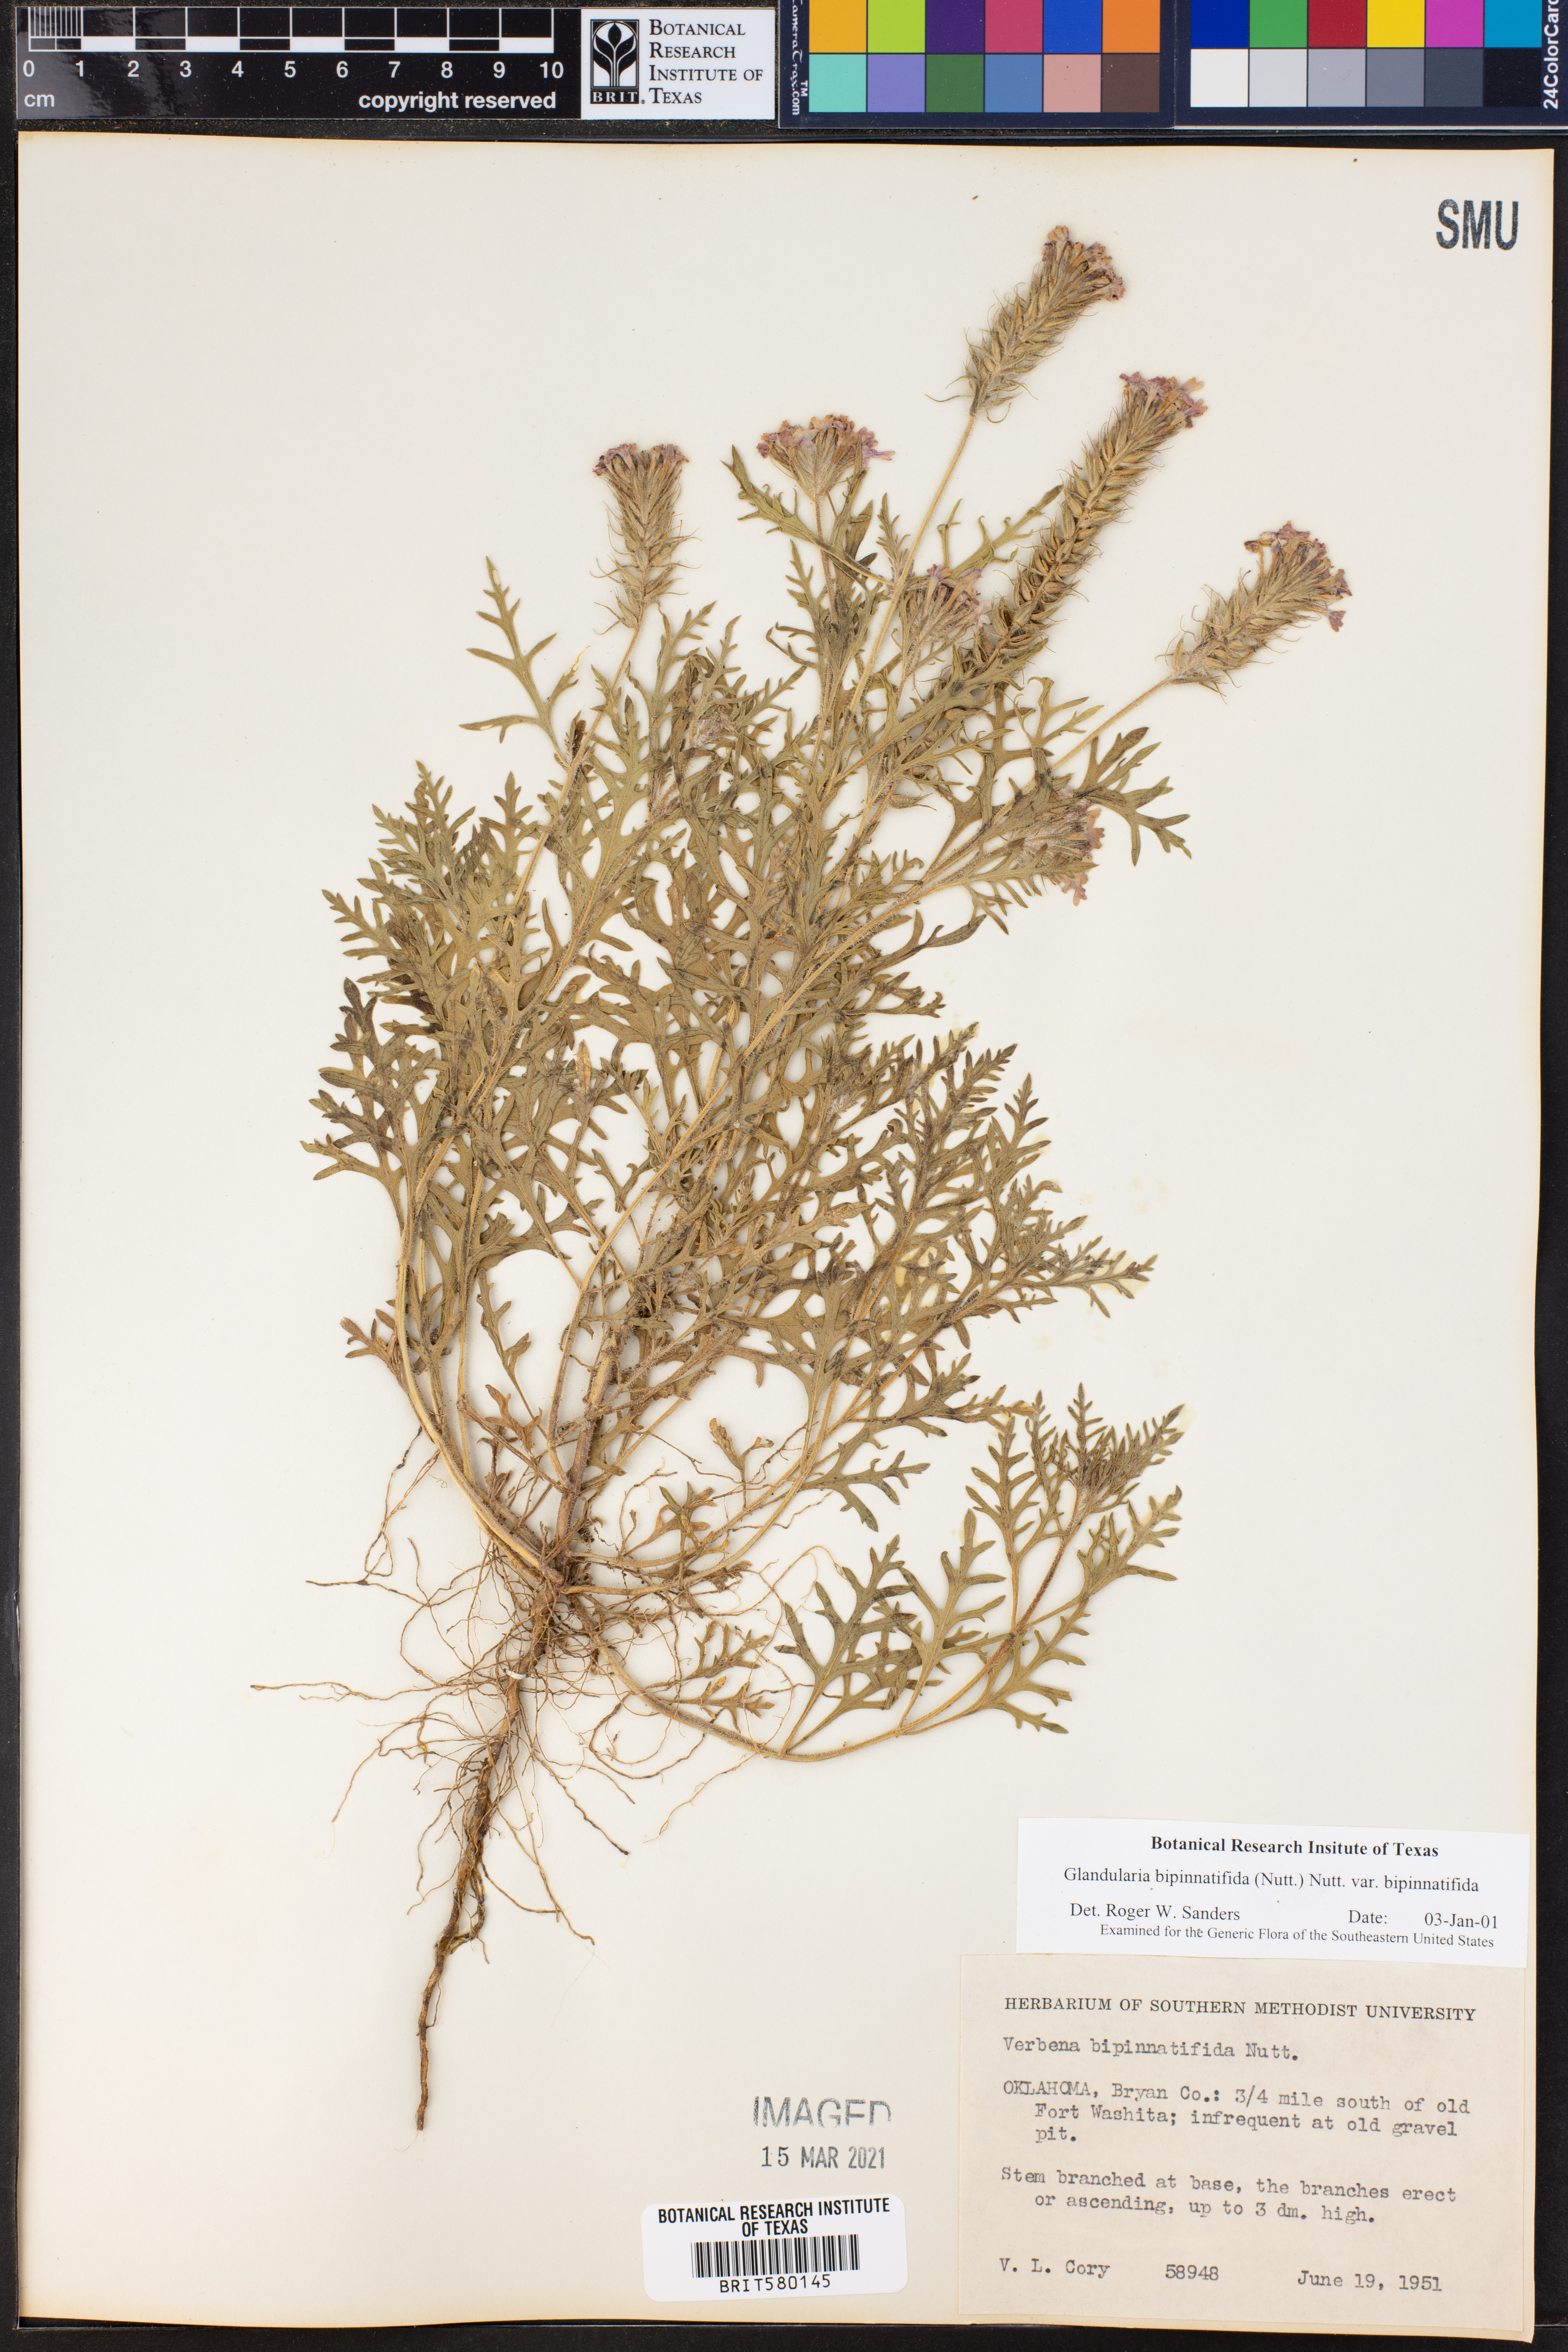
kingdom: Plantae
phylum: Tracheophyta
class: Magnoliopsida
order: Lamiales
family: Verbenaceae
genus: Verbena
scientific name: Verbena bipinnatifida
